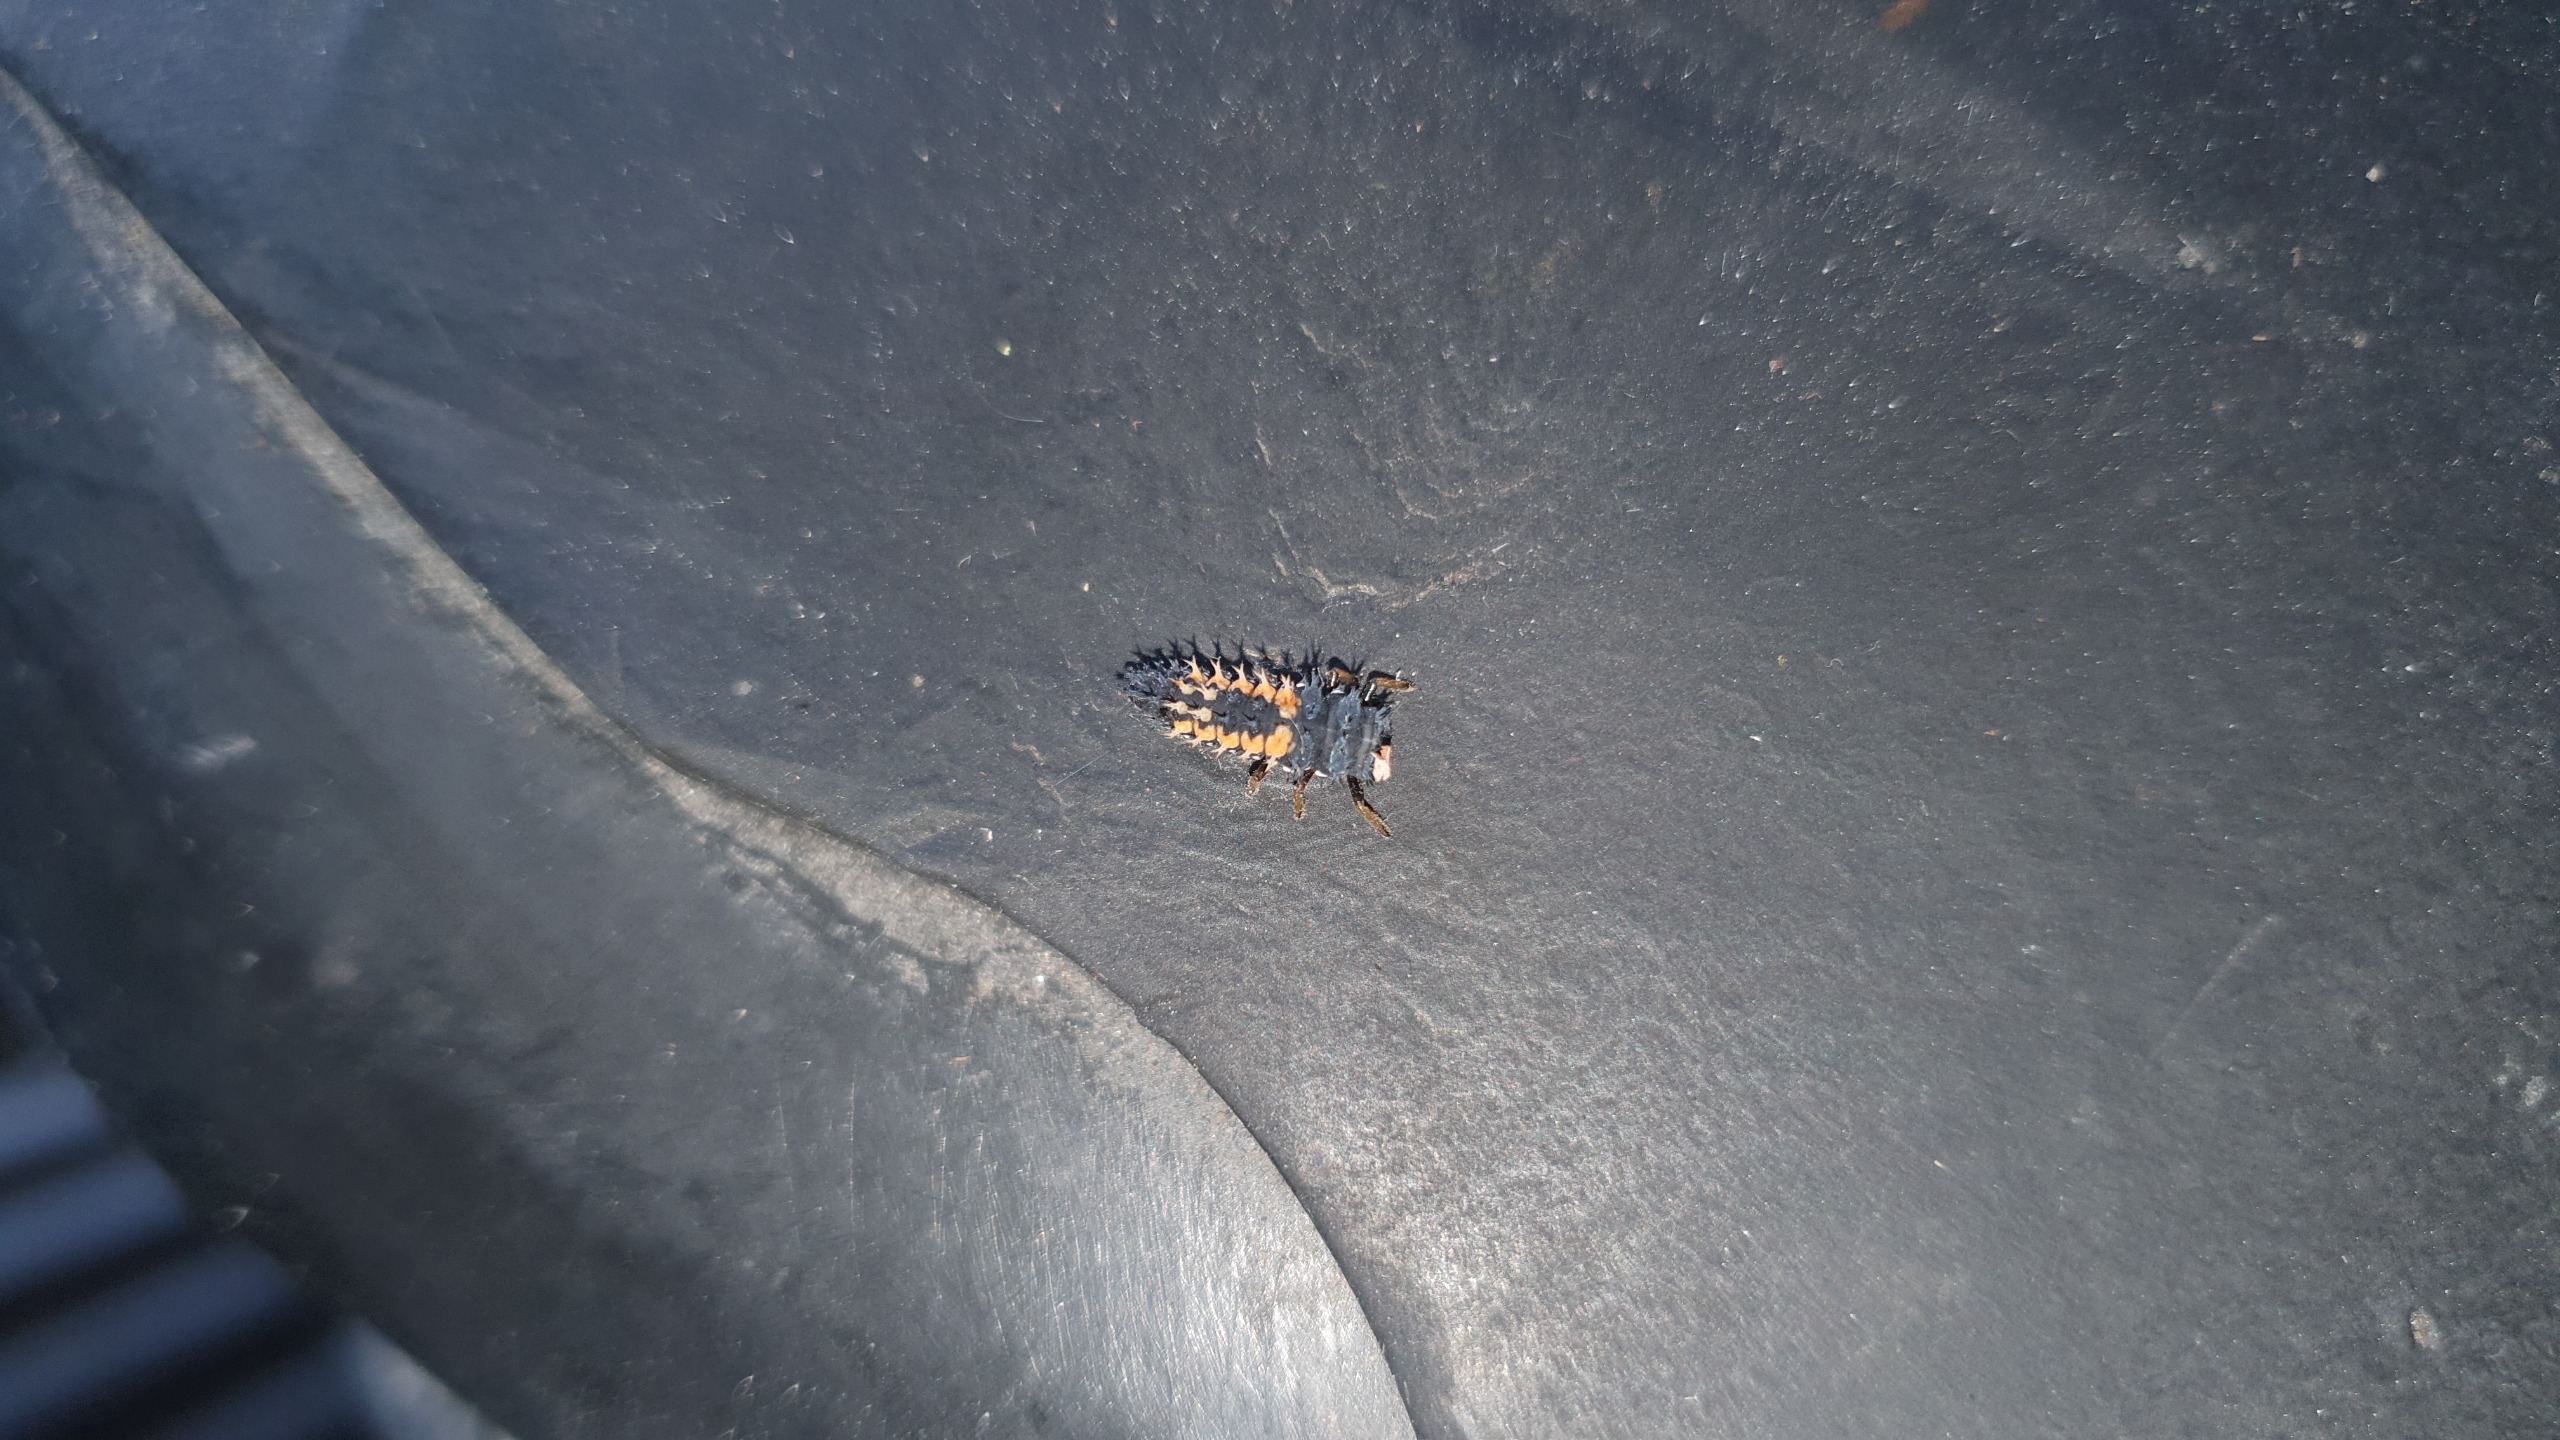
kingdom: Animalia
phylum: Arthropoda
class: Insecta
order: Coleoptera
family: Coccinellidae
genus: Harmonia
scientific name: Harmonia axyridis
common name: Harlekinmariehøne
